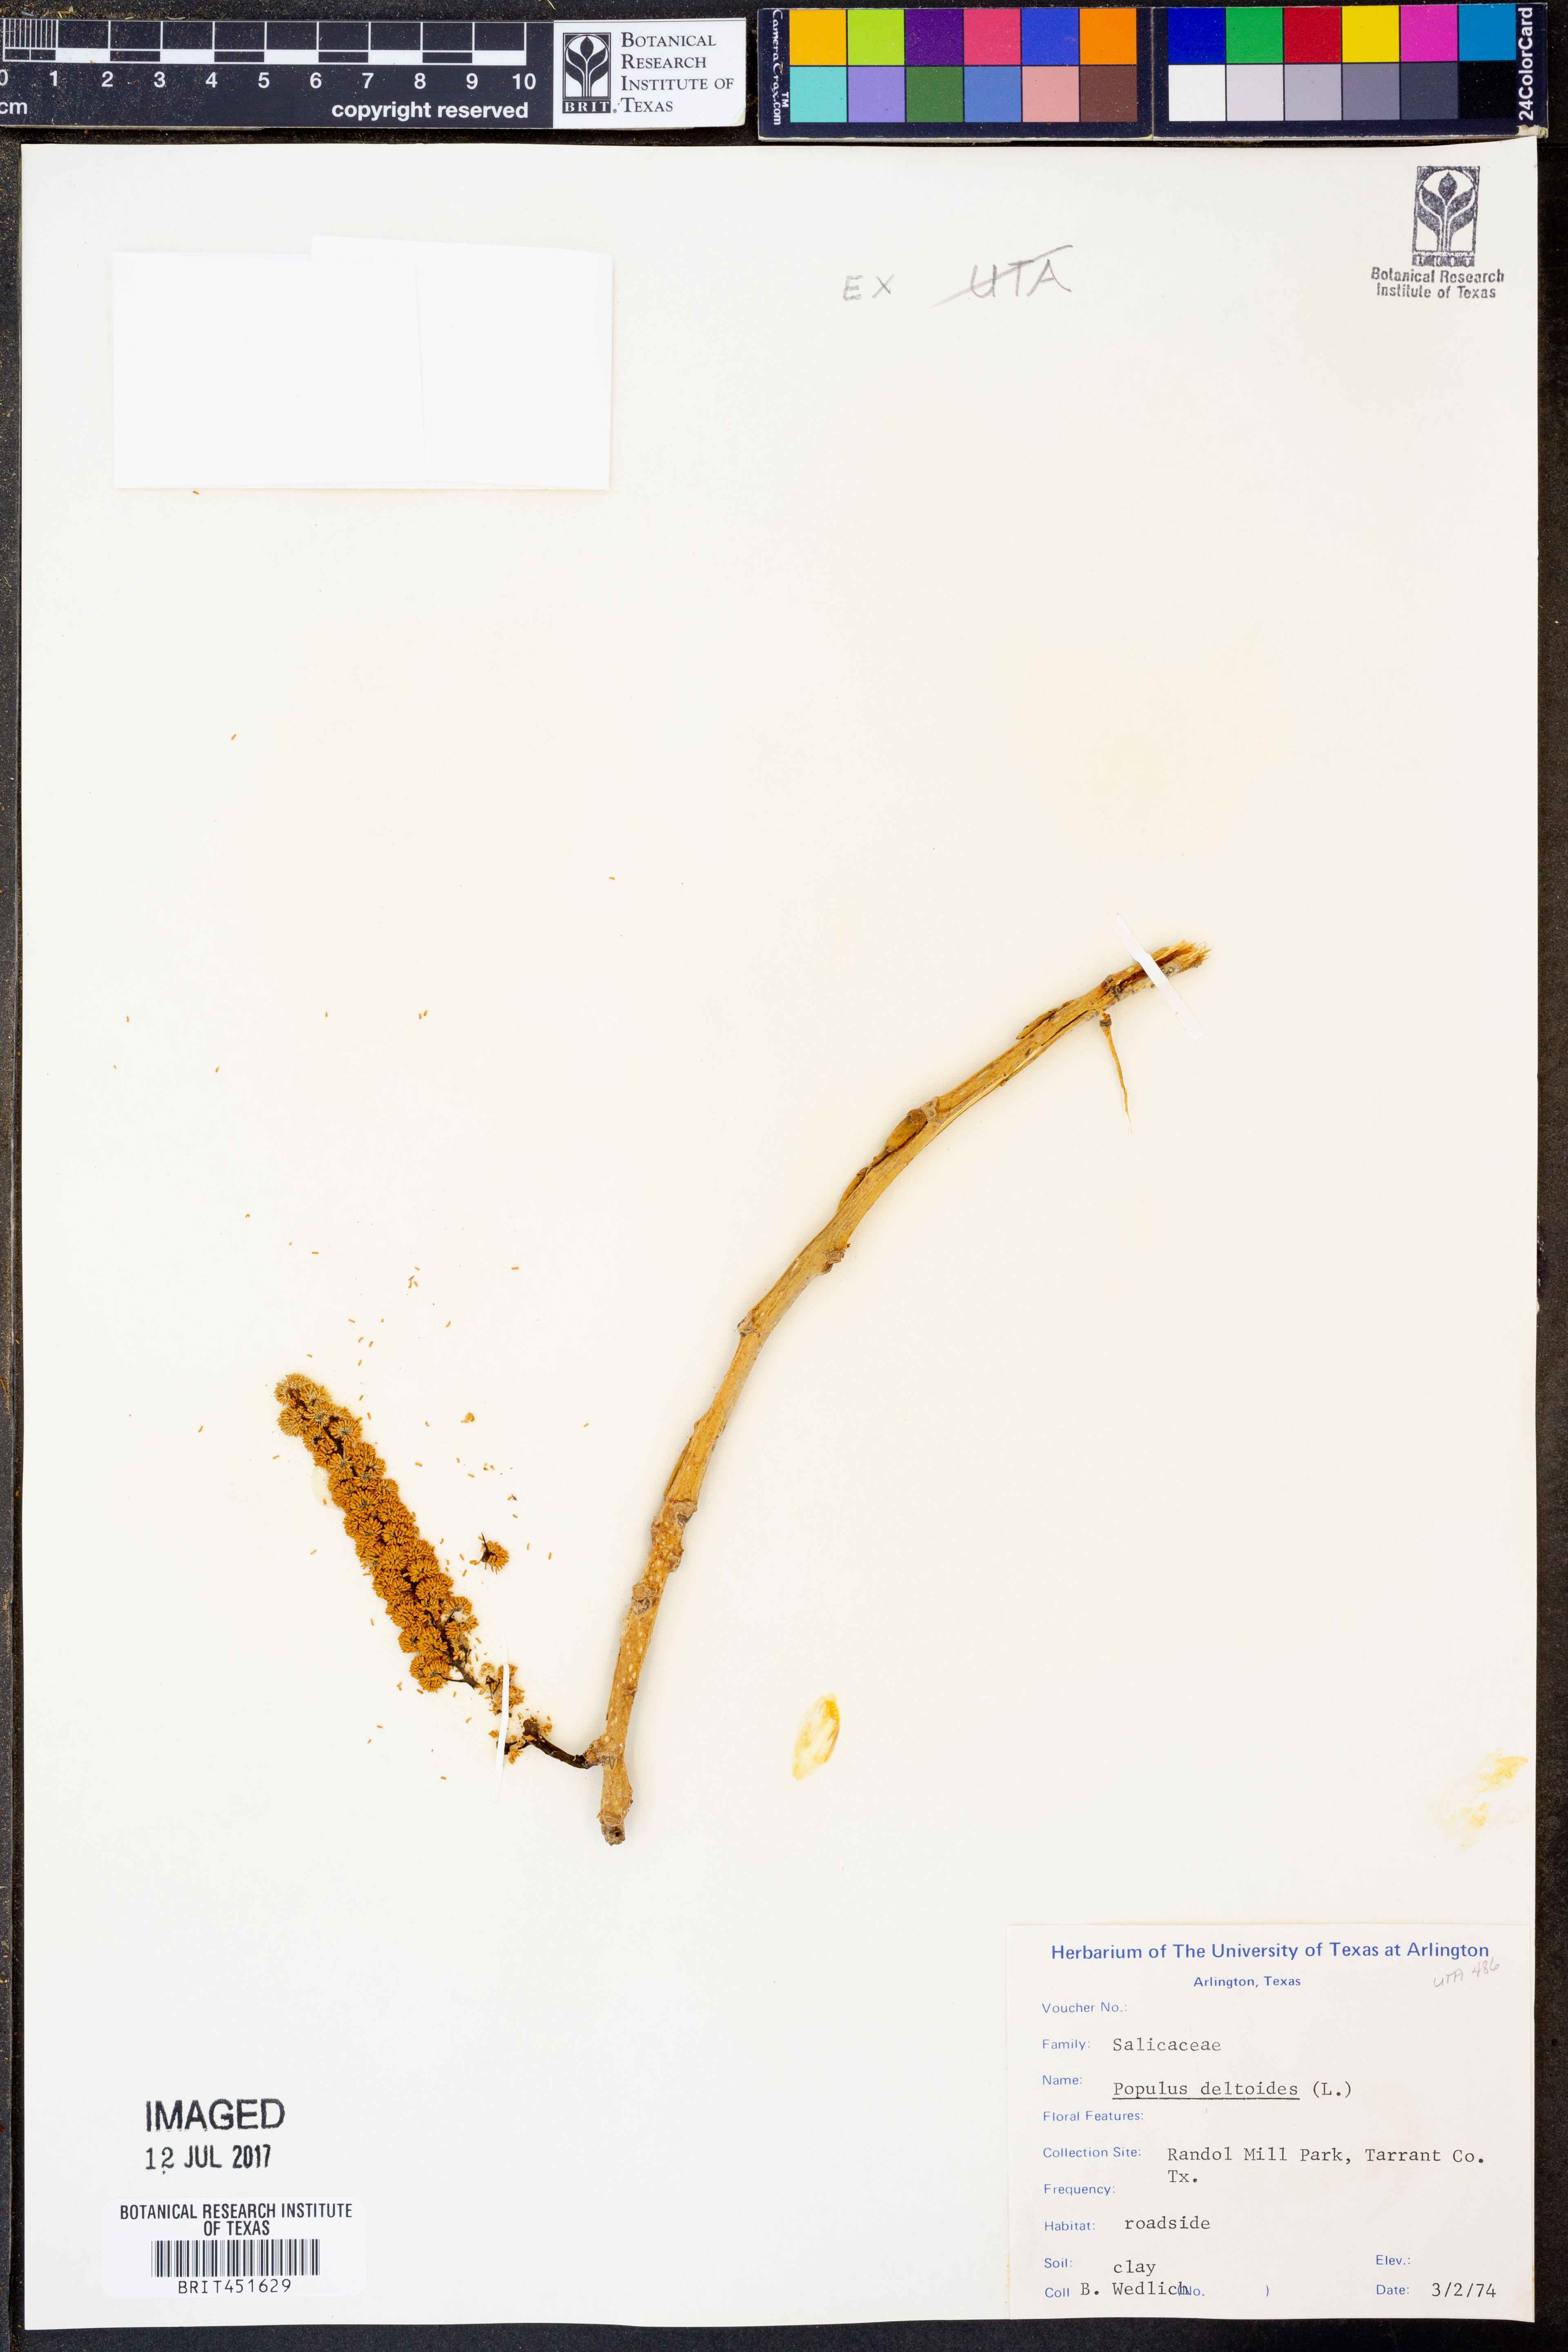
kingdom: Plantae
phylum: Tracheophyta
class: Magnoliopsida
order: Malpighiales
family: Salicaceae
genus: Populus
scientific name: Populus deltoides
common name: Eastern cottonwood
